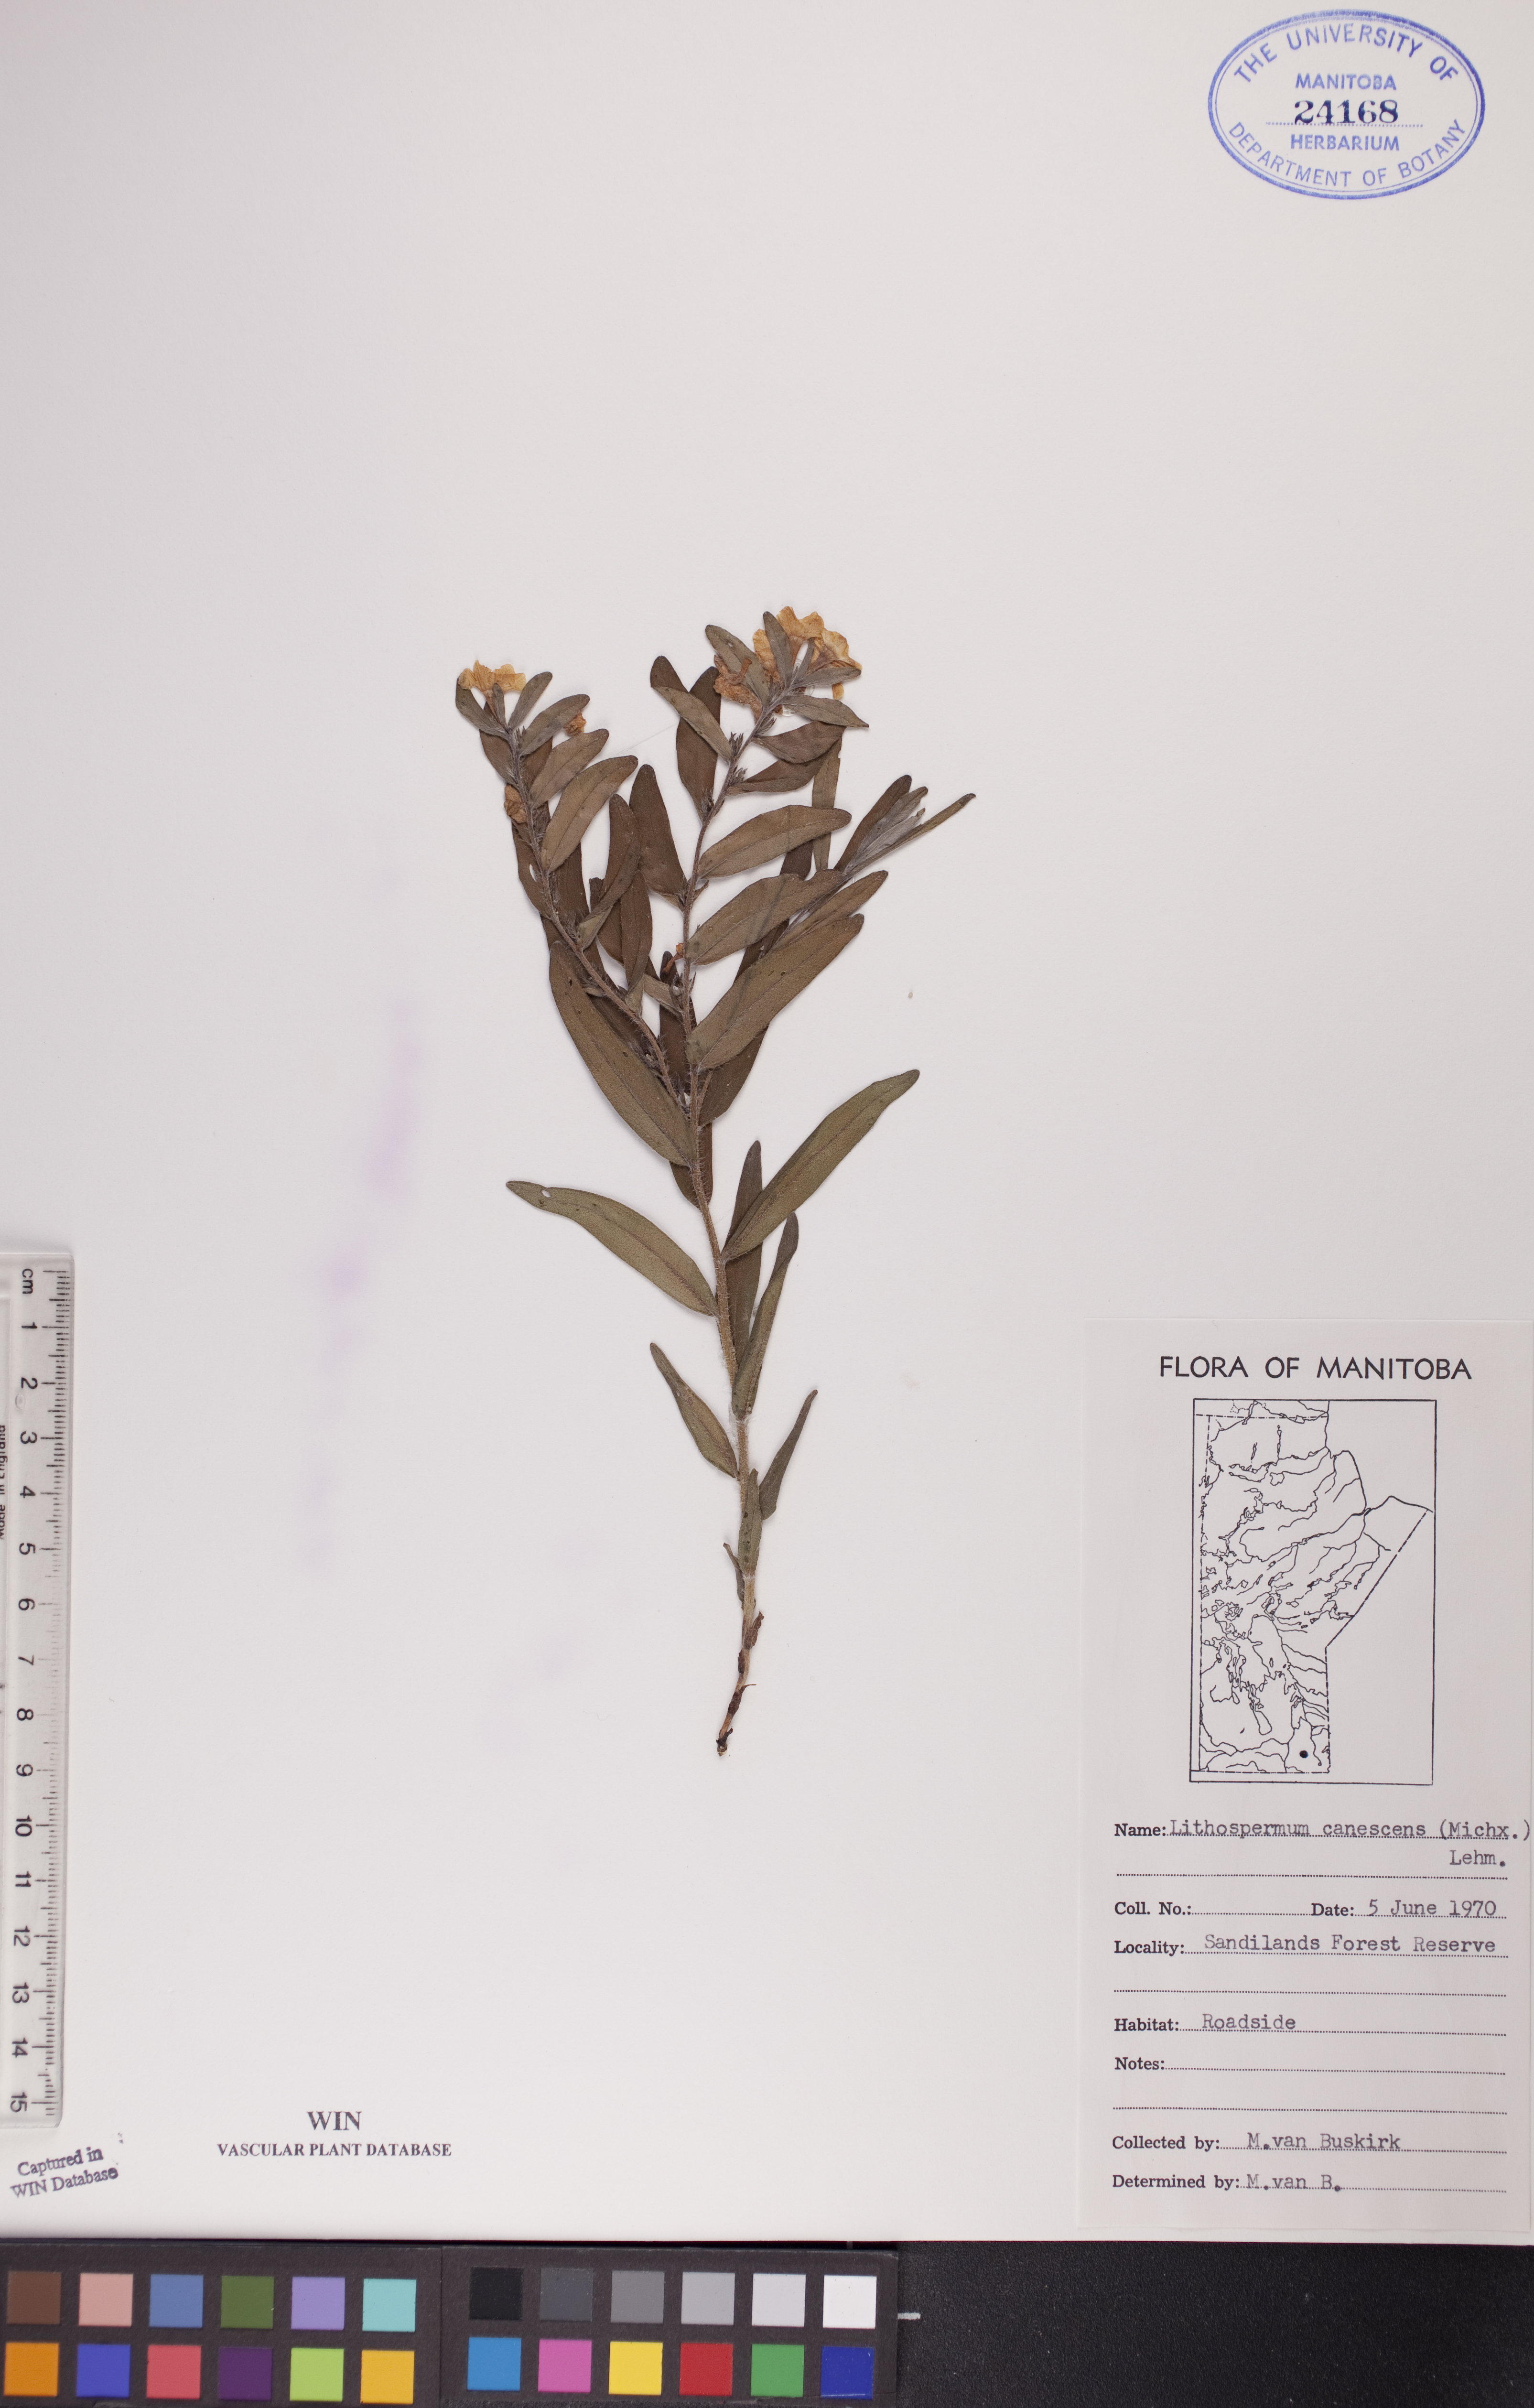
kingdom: Plantae
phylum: Tracheophyta
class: Magnoliopsida
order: Boraginales
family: Boraginaceae
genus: Lithospermum
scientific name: Lithospermum canescens
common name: Hoary puccoon
